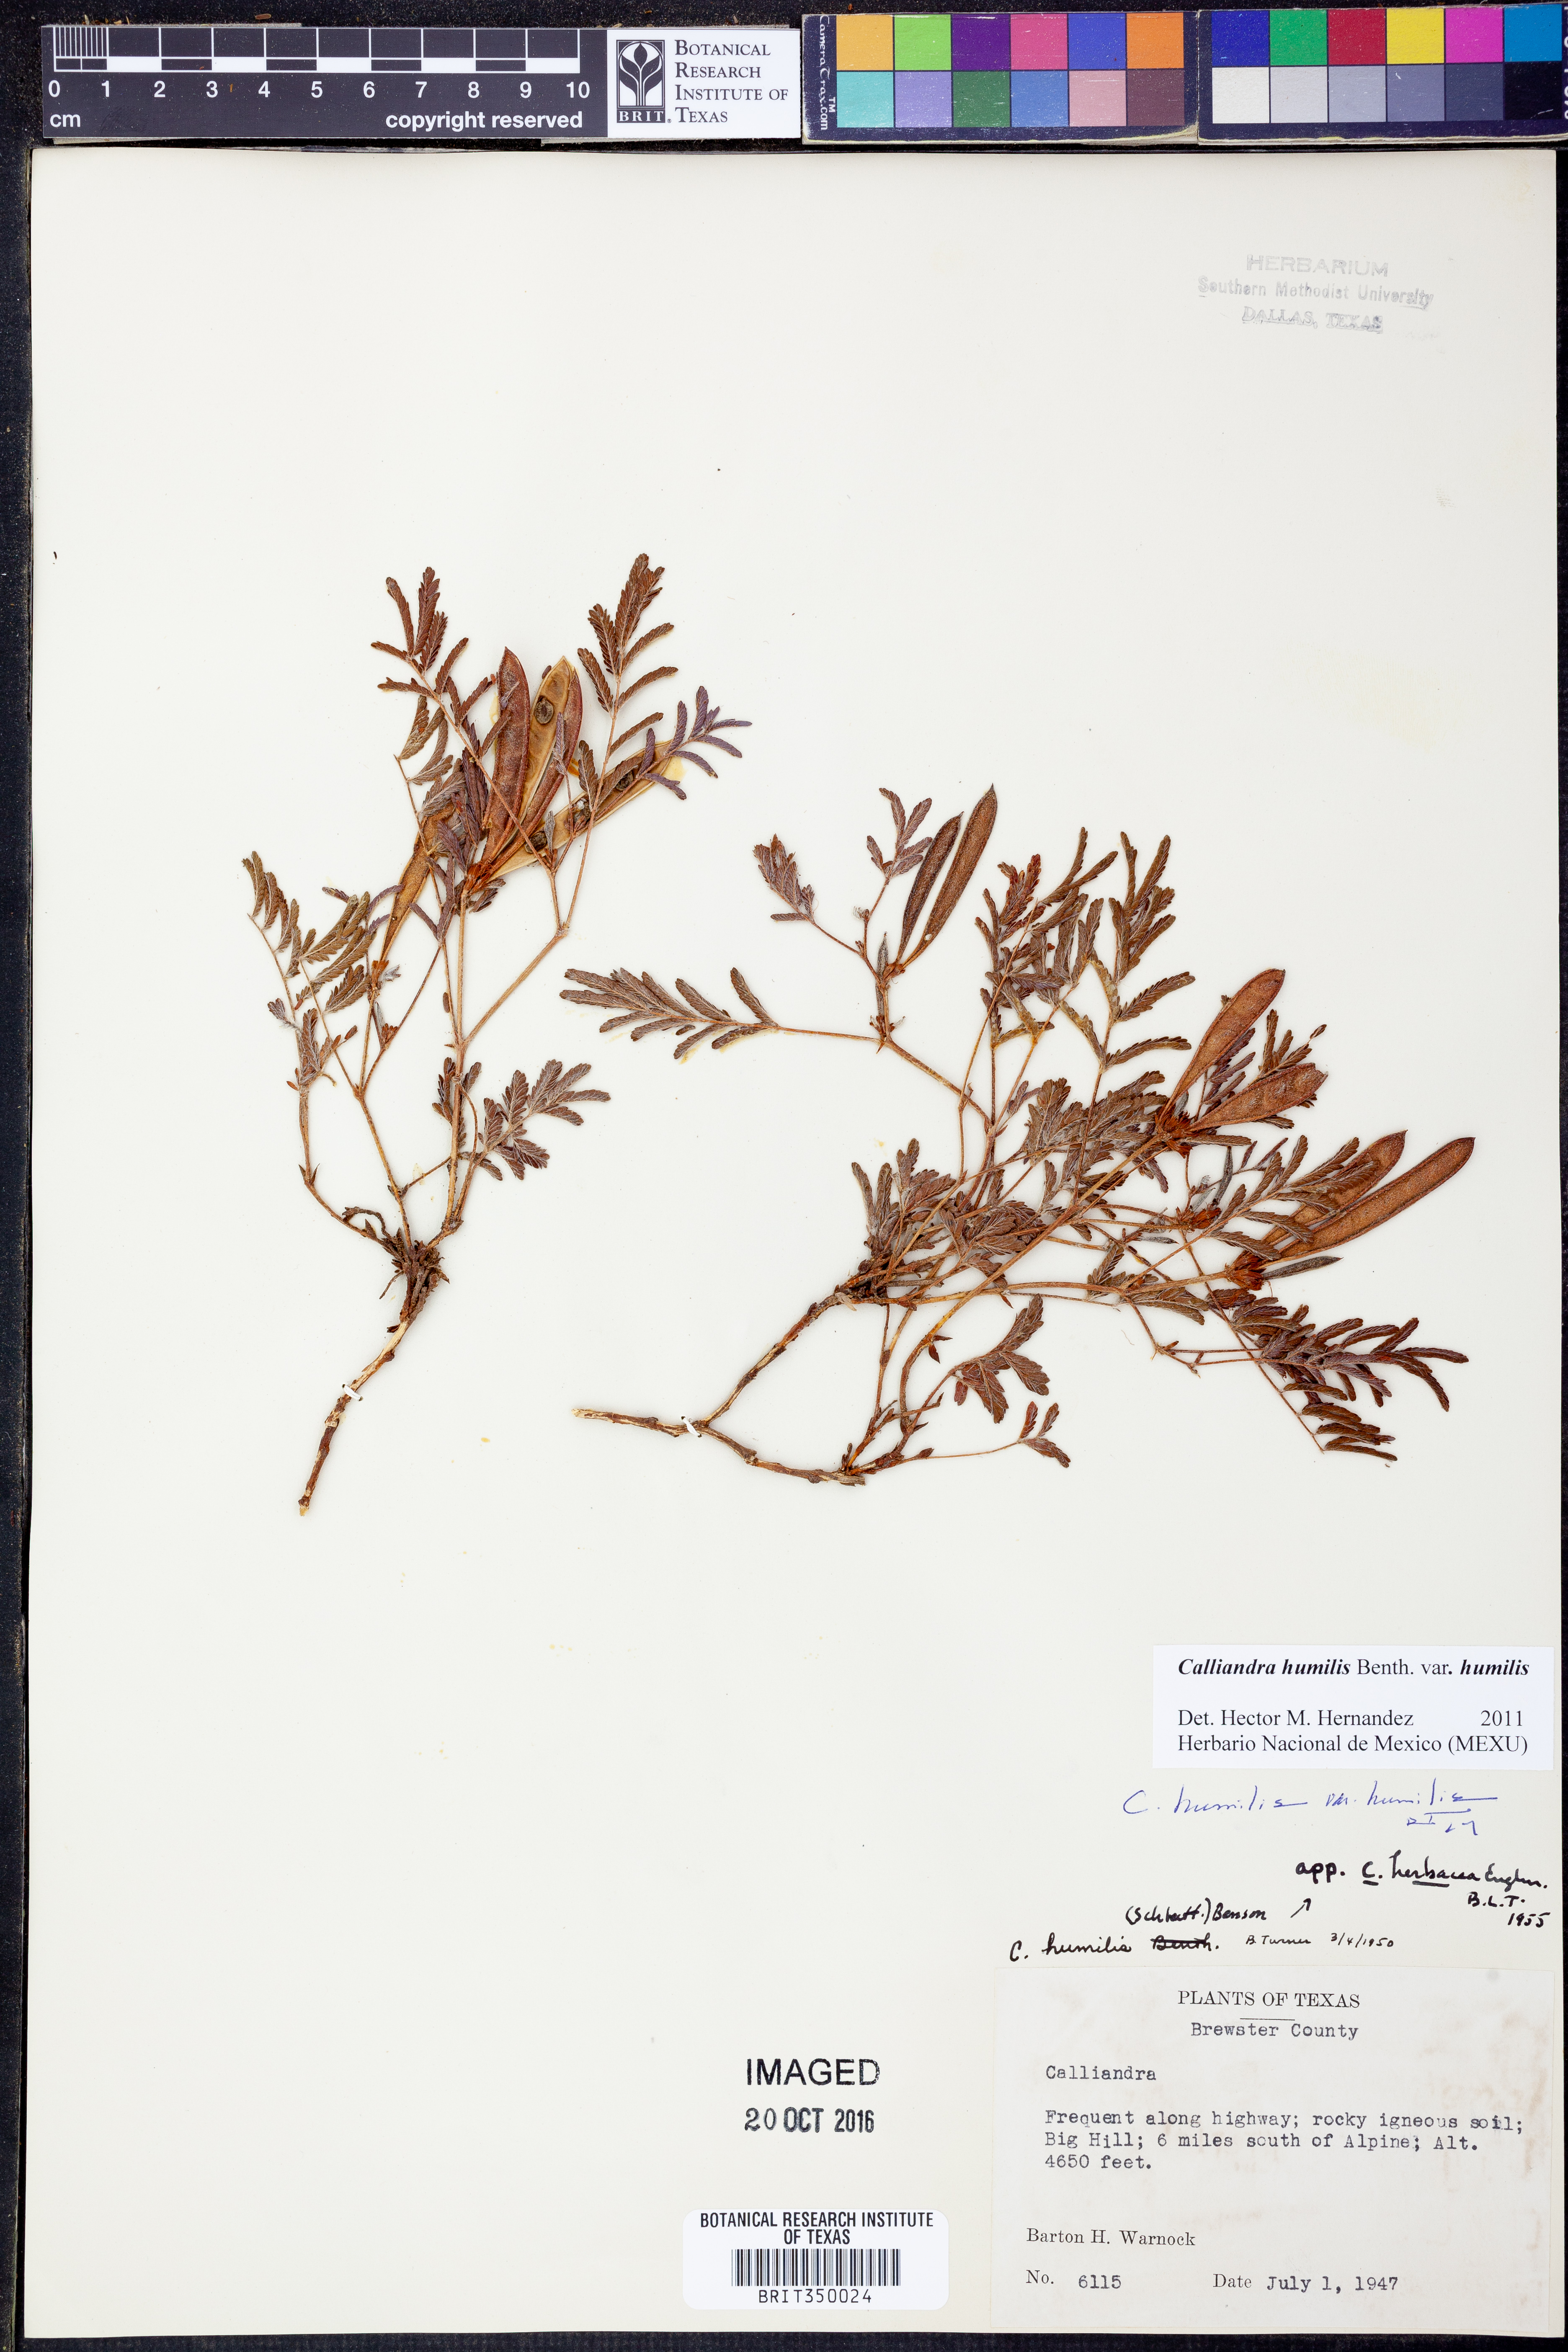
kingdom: Plantae
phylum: Tracheophyta
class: Magnoliopsida
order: Fabales
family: Fabaceae
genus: Calliandra
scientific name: Calliandra humilis
